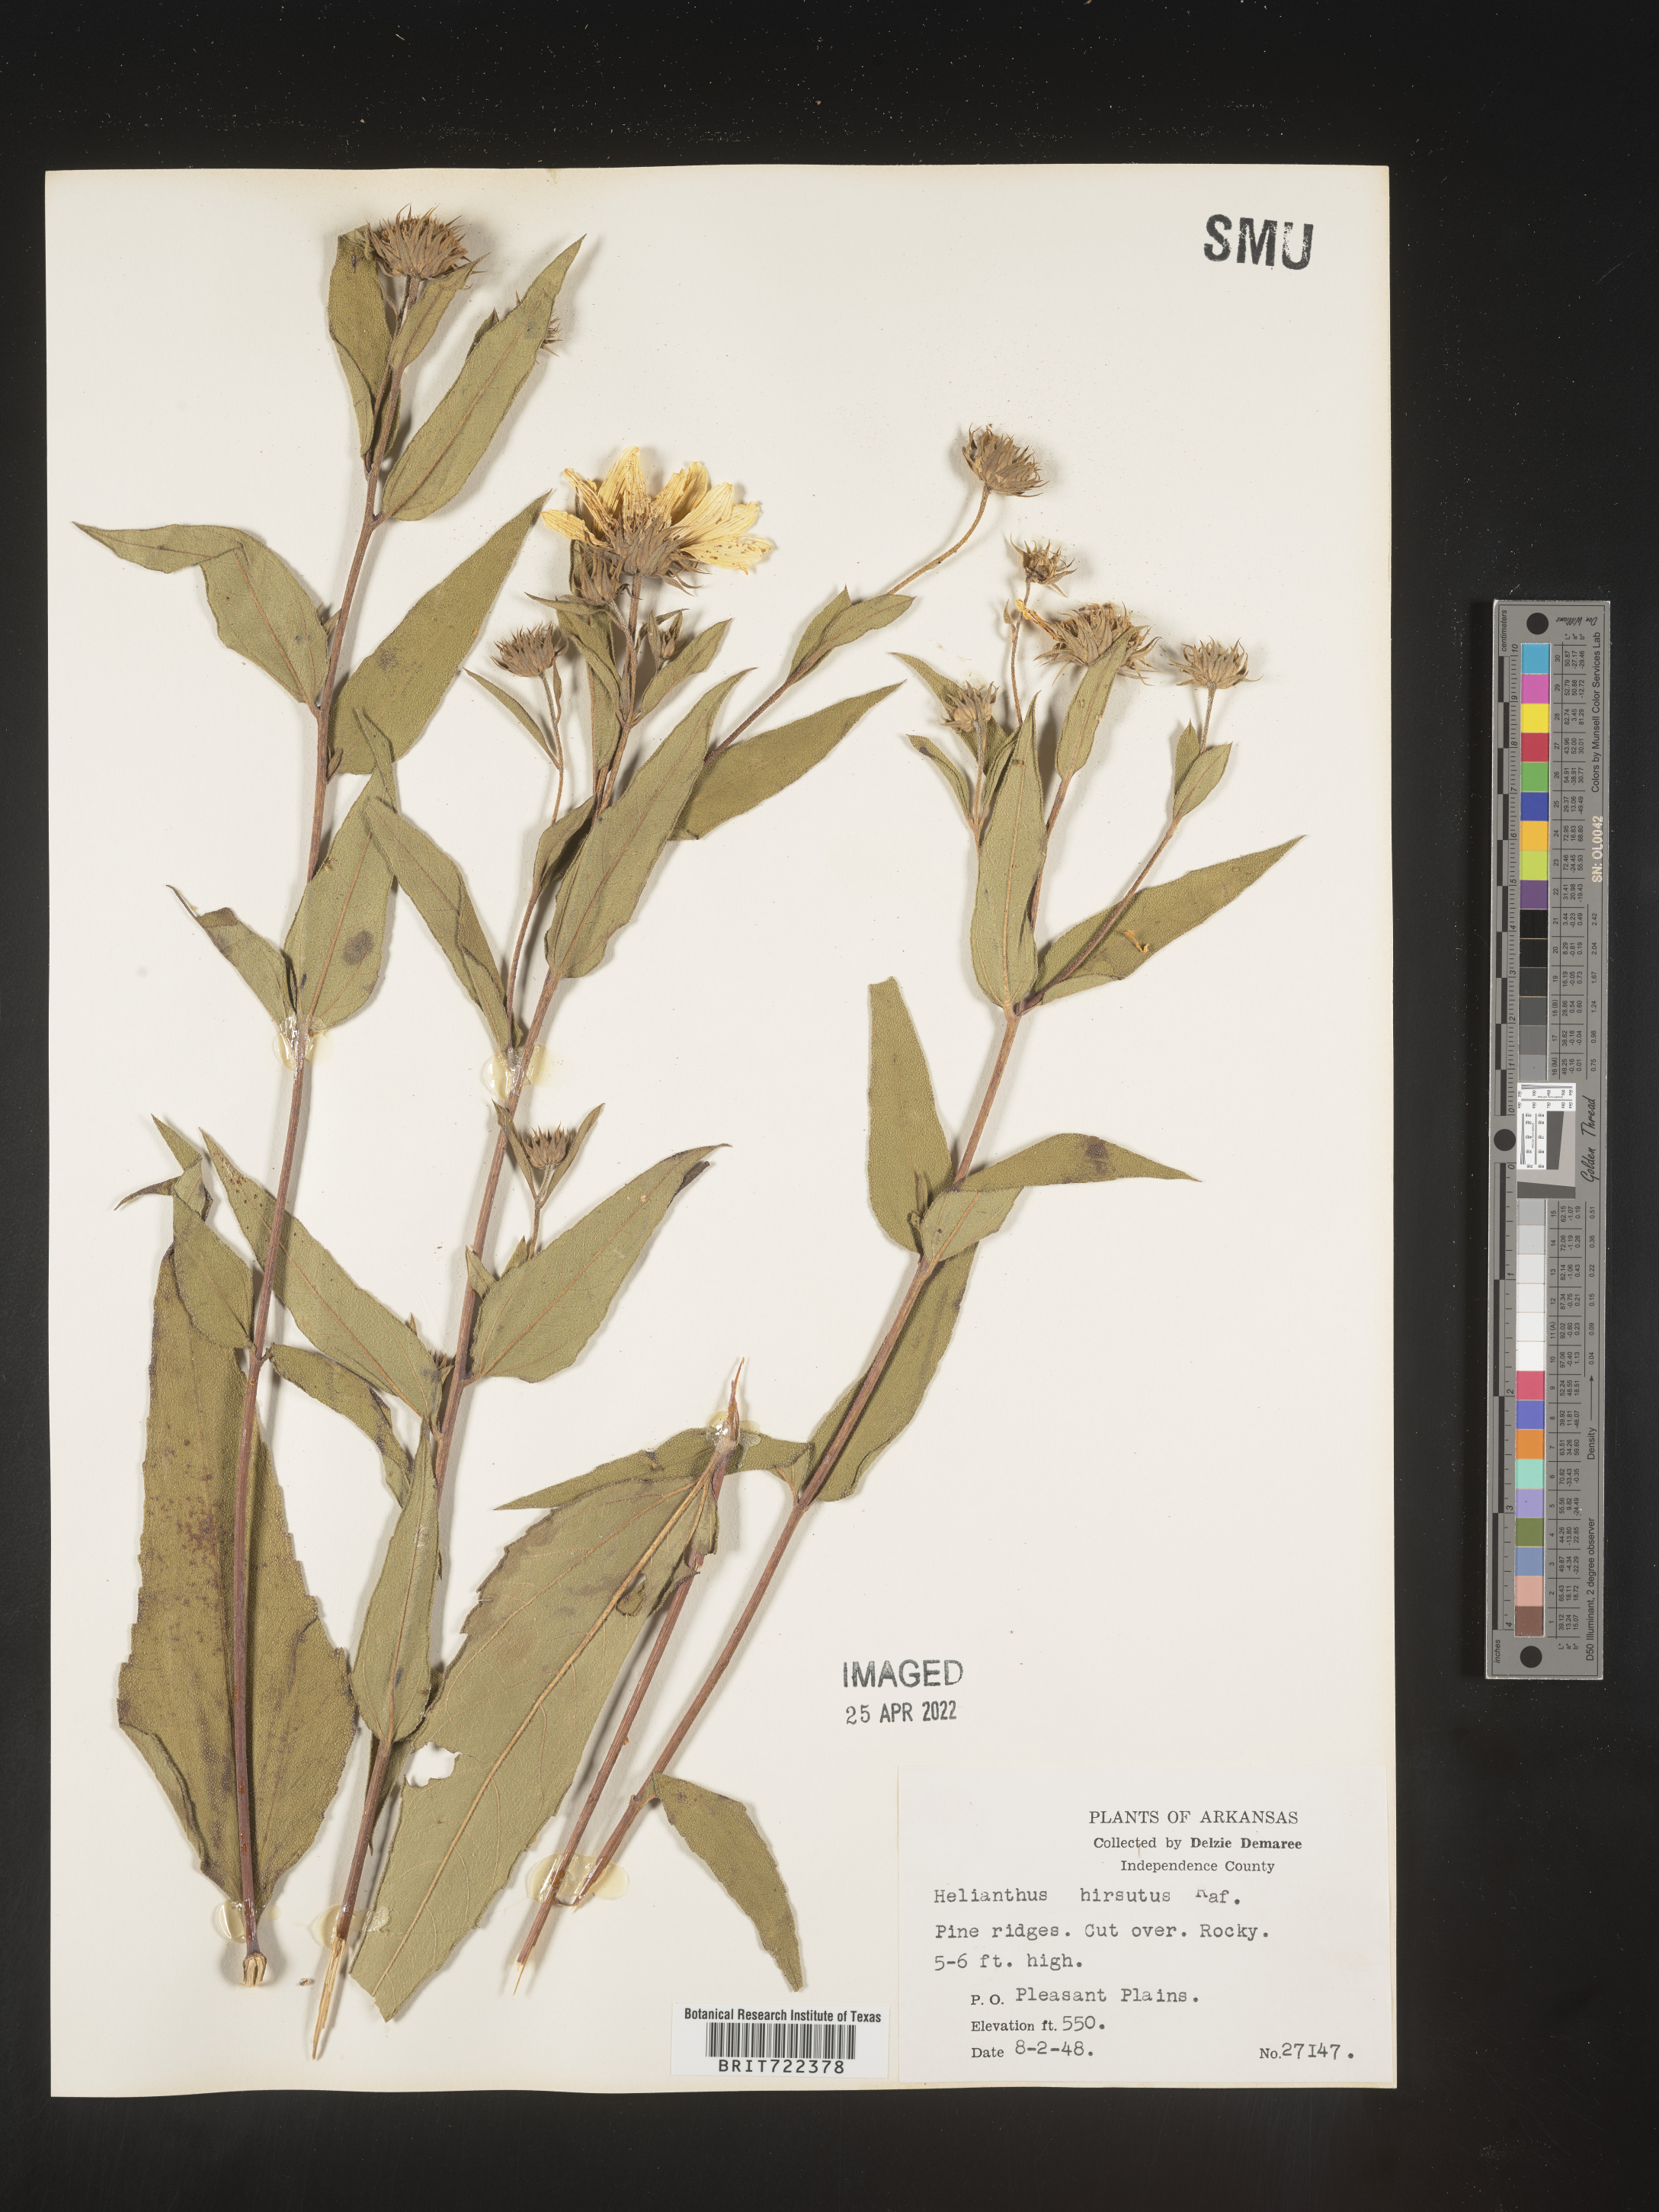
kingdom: Plantae
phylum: Tracheophyta
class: Magnoliopsida
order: Asterales
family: Asteraceae
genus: Helianthus
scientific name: Helianthus hirsutus
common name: Hairy sunflower
